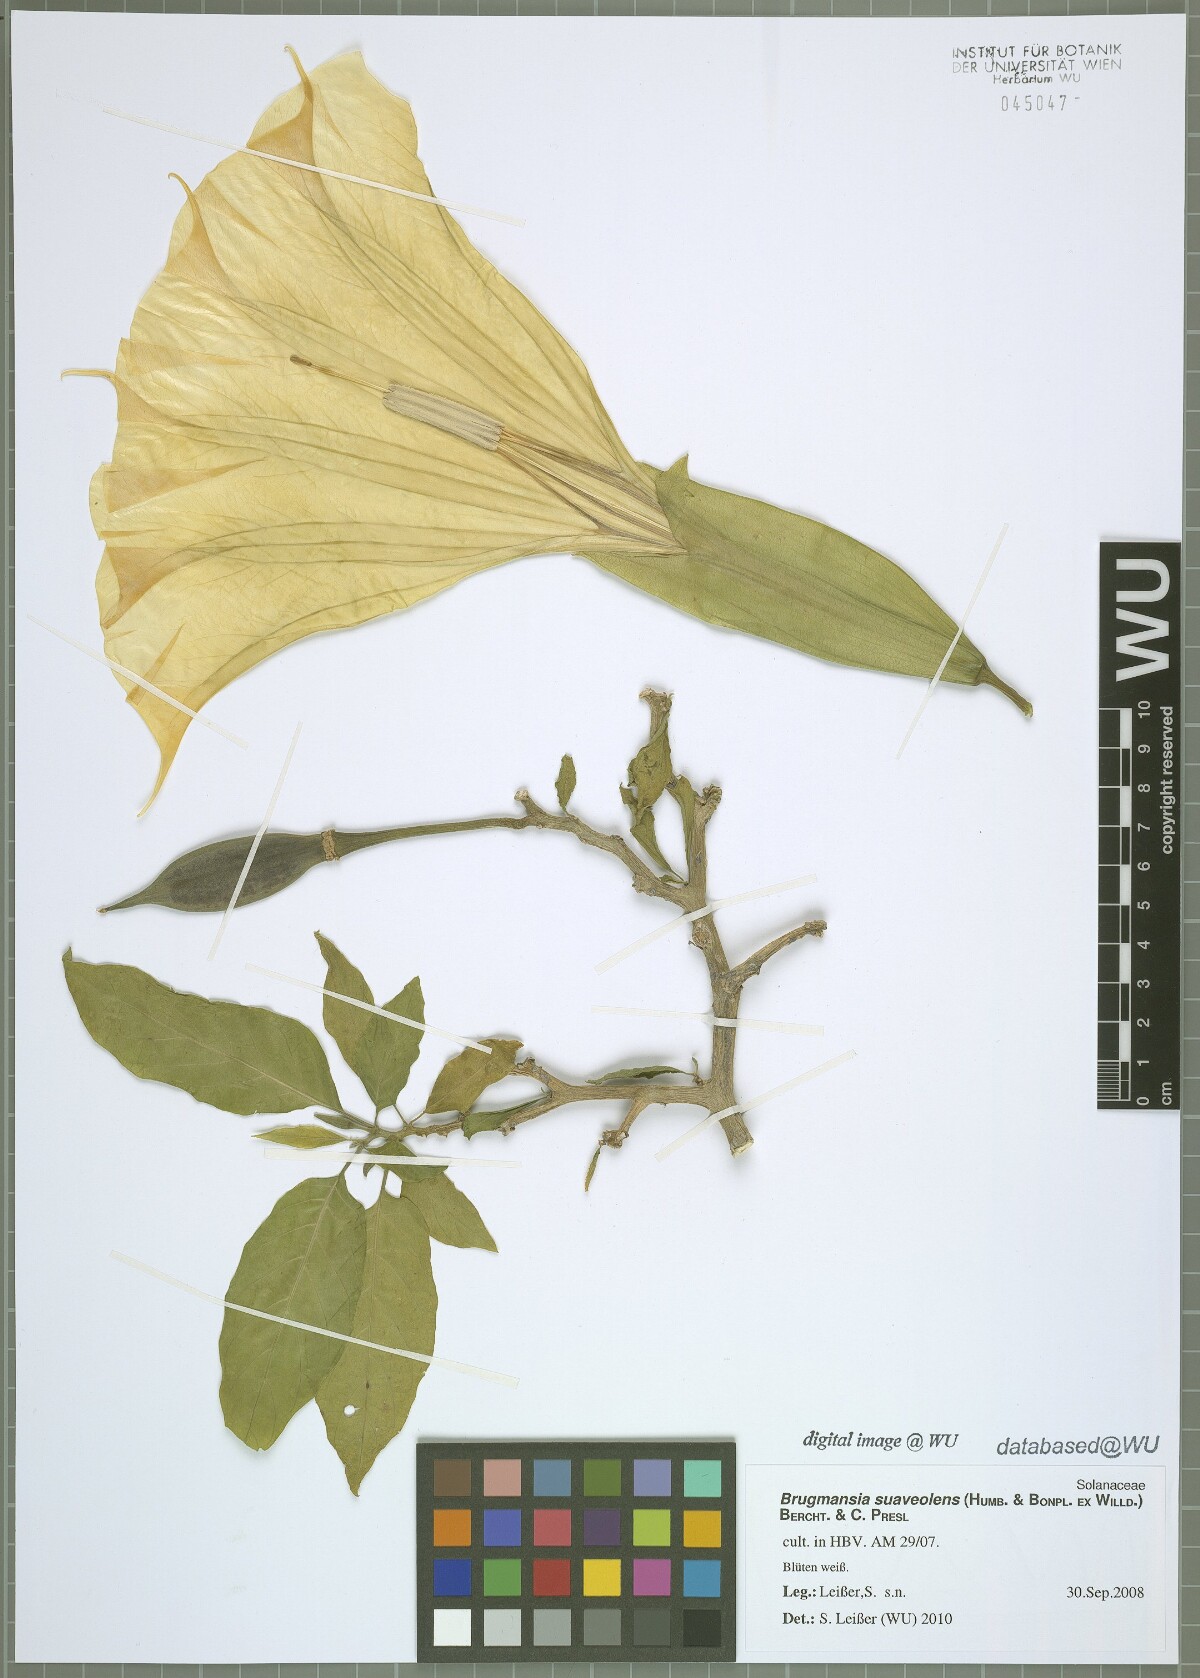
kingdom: Plantae
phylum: Tracheophyta
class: Magnoliopsida
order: Solanales
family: Solanaceae
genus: Brugmansia
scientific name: Brugmansia suaveolens
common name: Angel's tears
